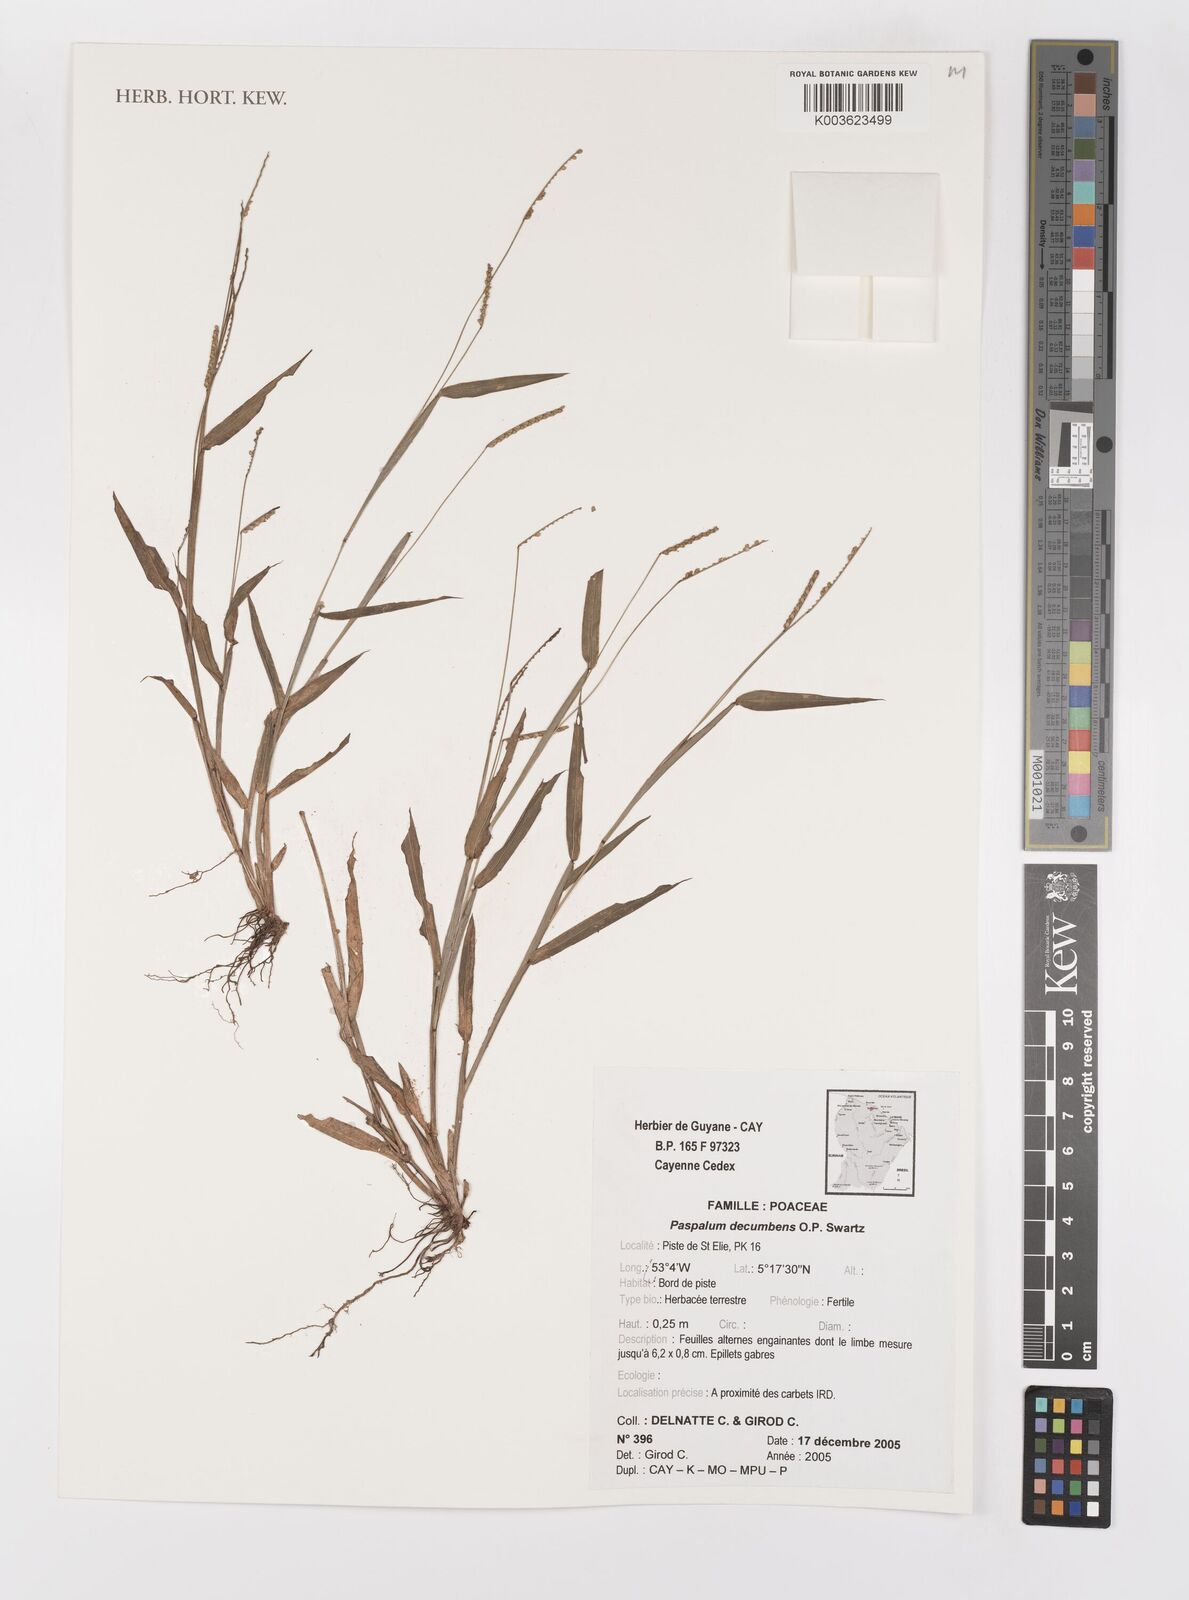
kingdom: Plantae
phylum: Tracheophyta
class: Liliopsida
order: Poales
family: Poaceae
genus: Paspalum
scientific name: Paspalum decumbens
